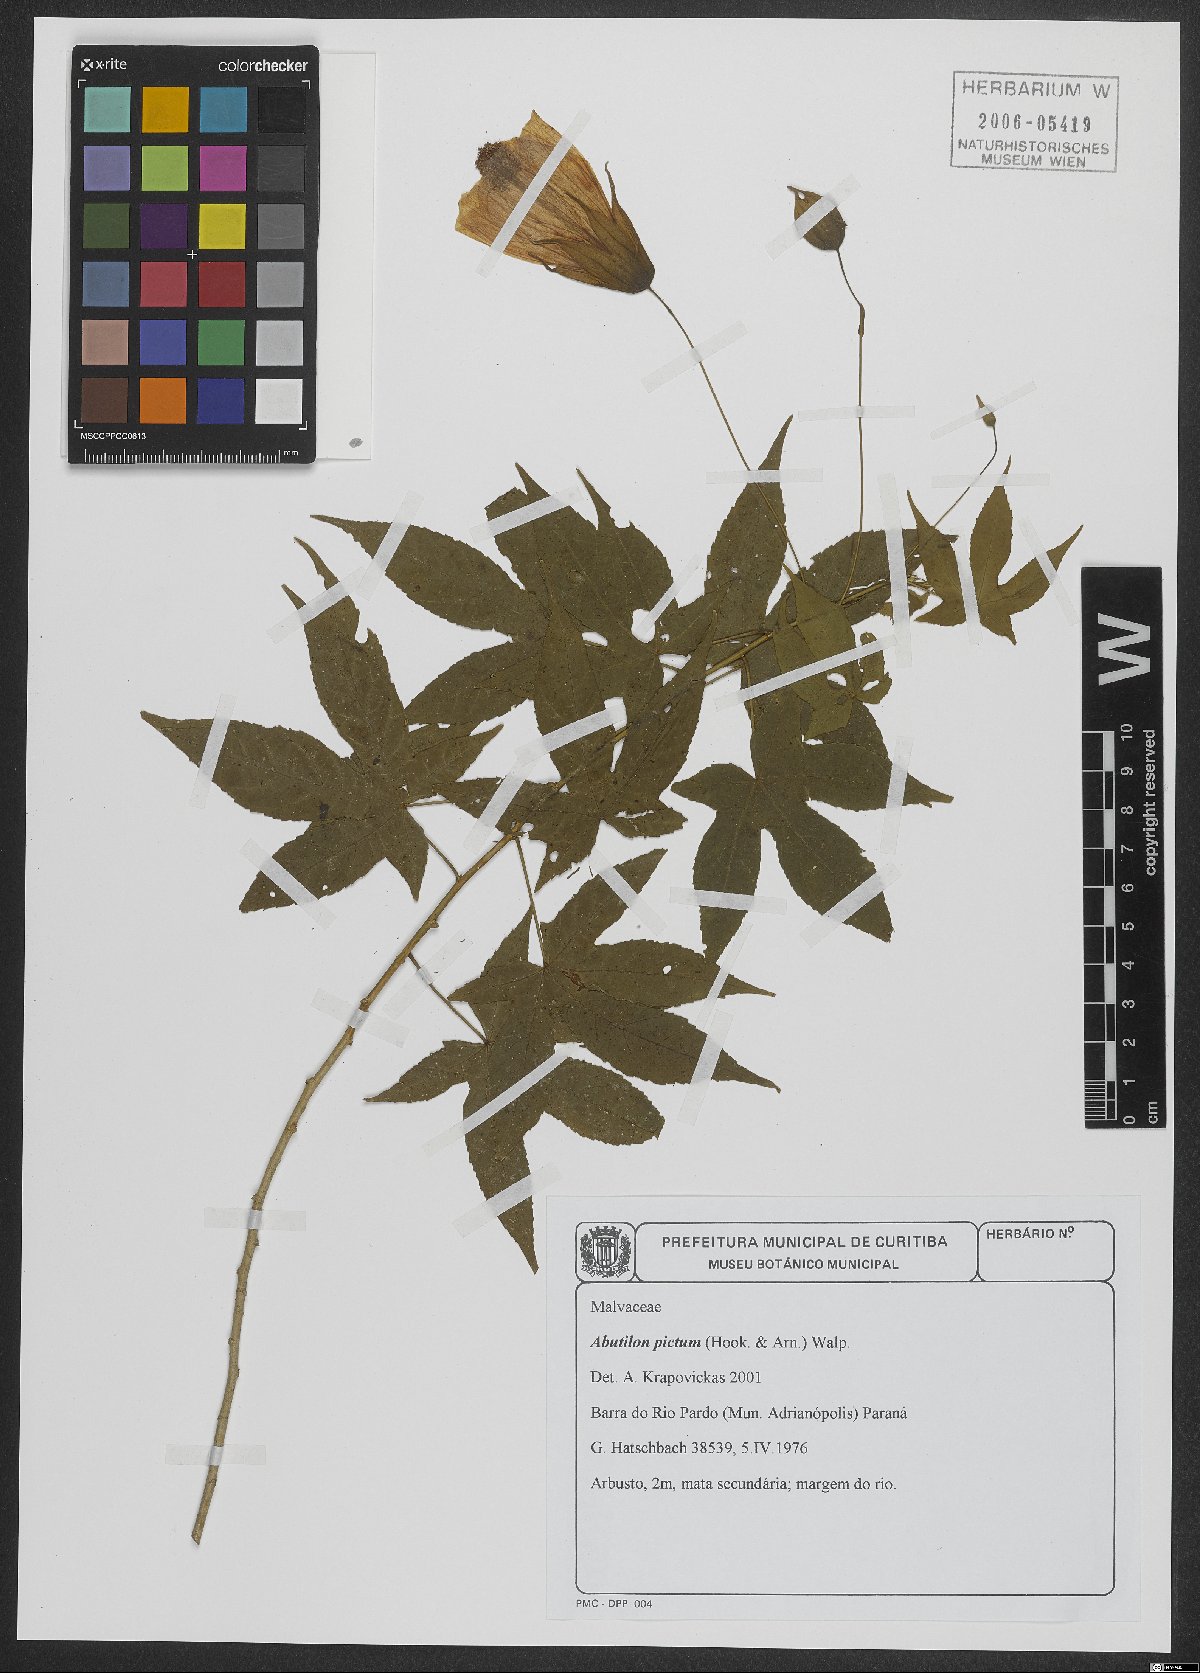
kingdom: Plantae
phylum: Tracheophyta
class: Magnoliopsida
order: Malvales
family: Malvaceae
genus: Callianthe
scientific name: Callianthe picta
